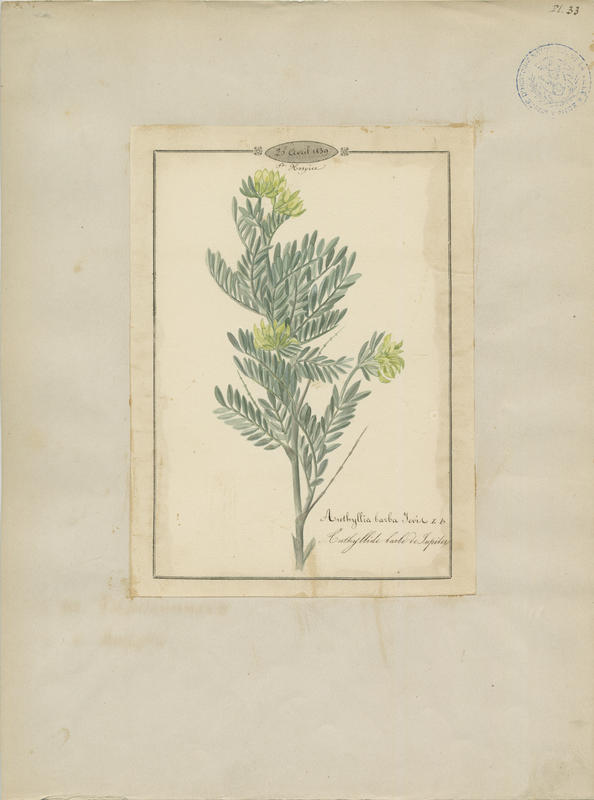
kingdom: Plantae
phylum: Tracheophyta
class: Magnoliopsida
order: Fabales
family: Fabaceae
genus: Anthyllis
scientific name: Anthyllis barba-jovis
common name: Jupiter's-beard
